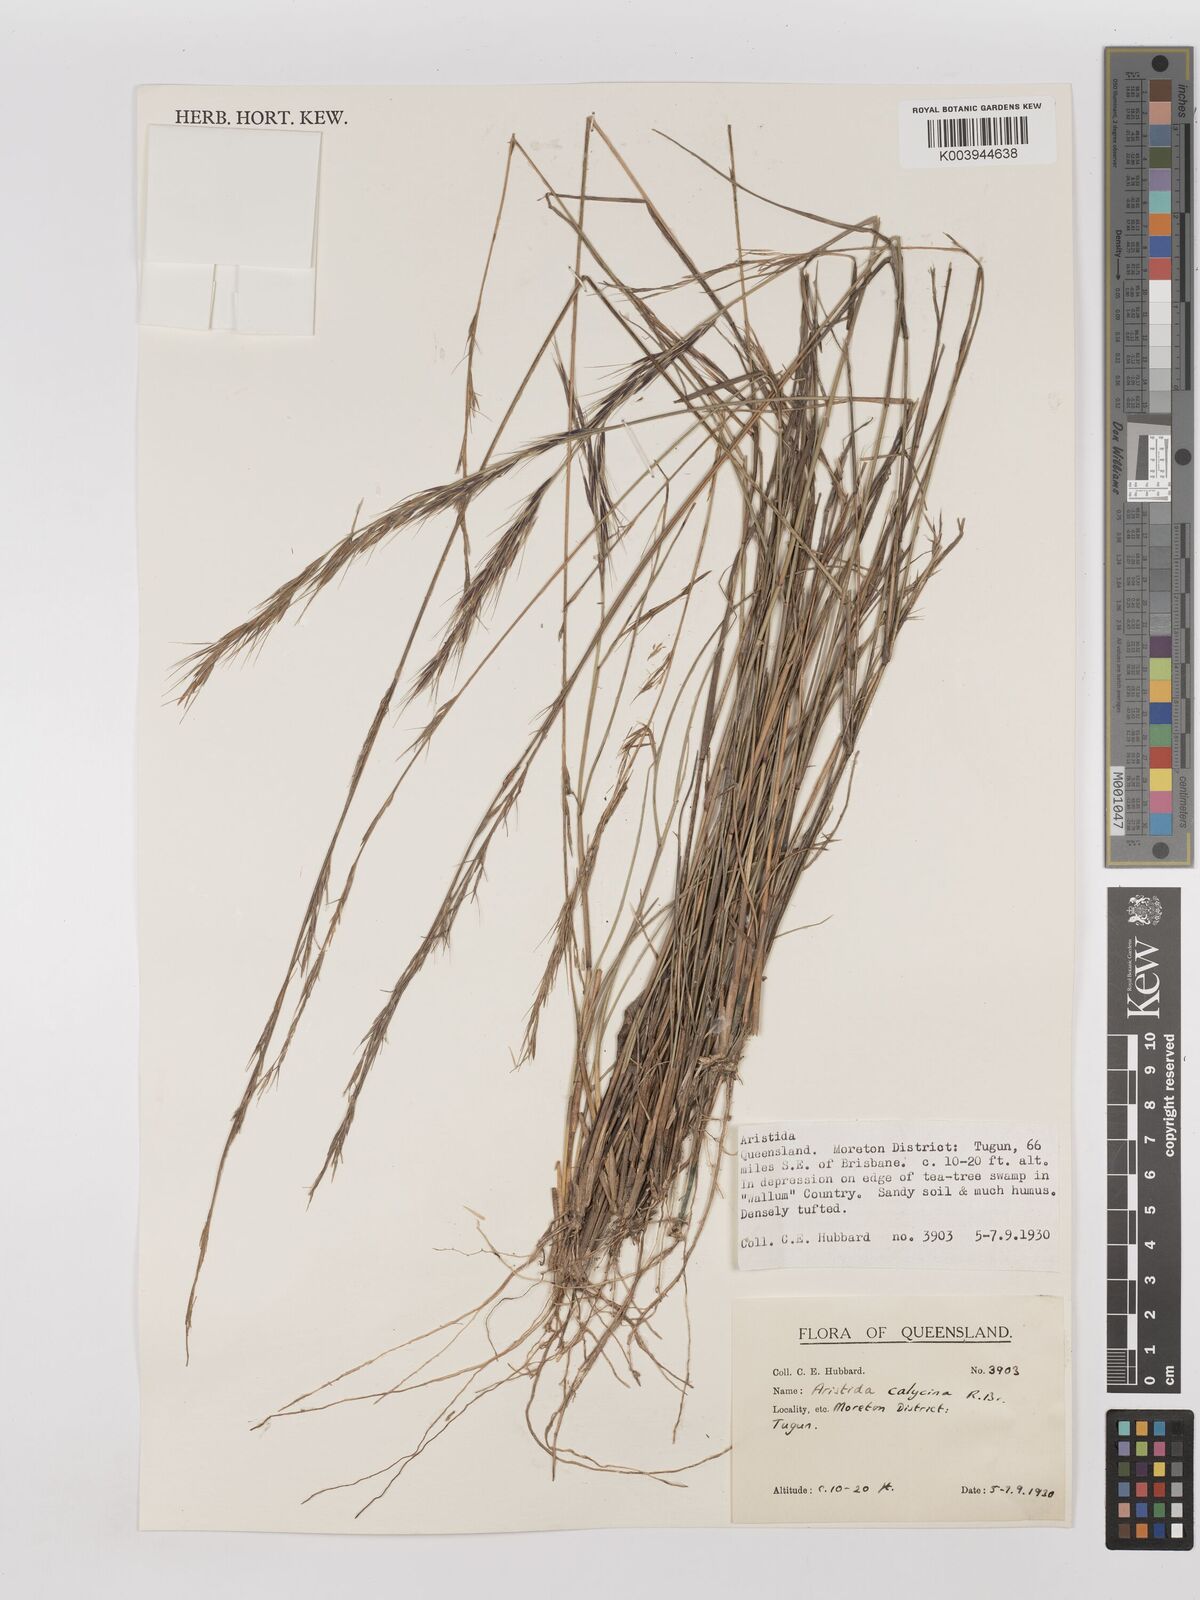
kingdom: Plantae
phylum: Tracheophyta
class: Liliopsida
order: Poales
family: Poaceae
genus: Aristida
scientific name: Aristida calycina
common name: Dark wire grass
